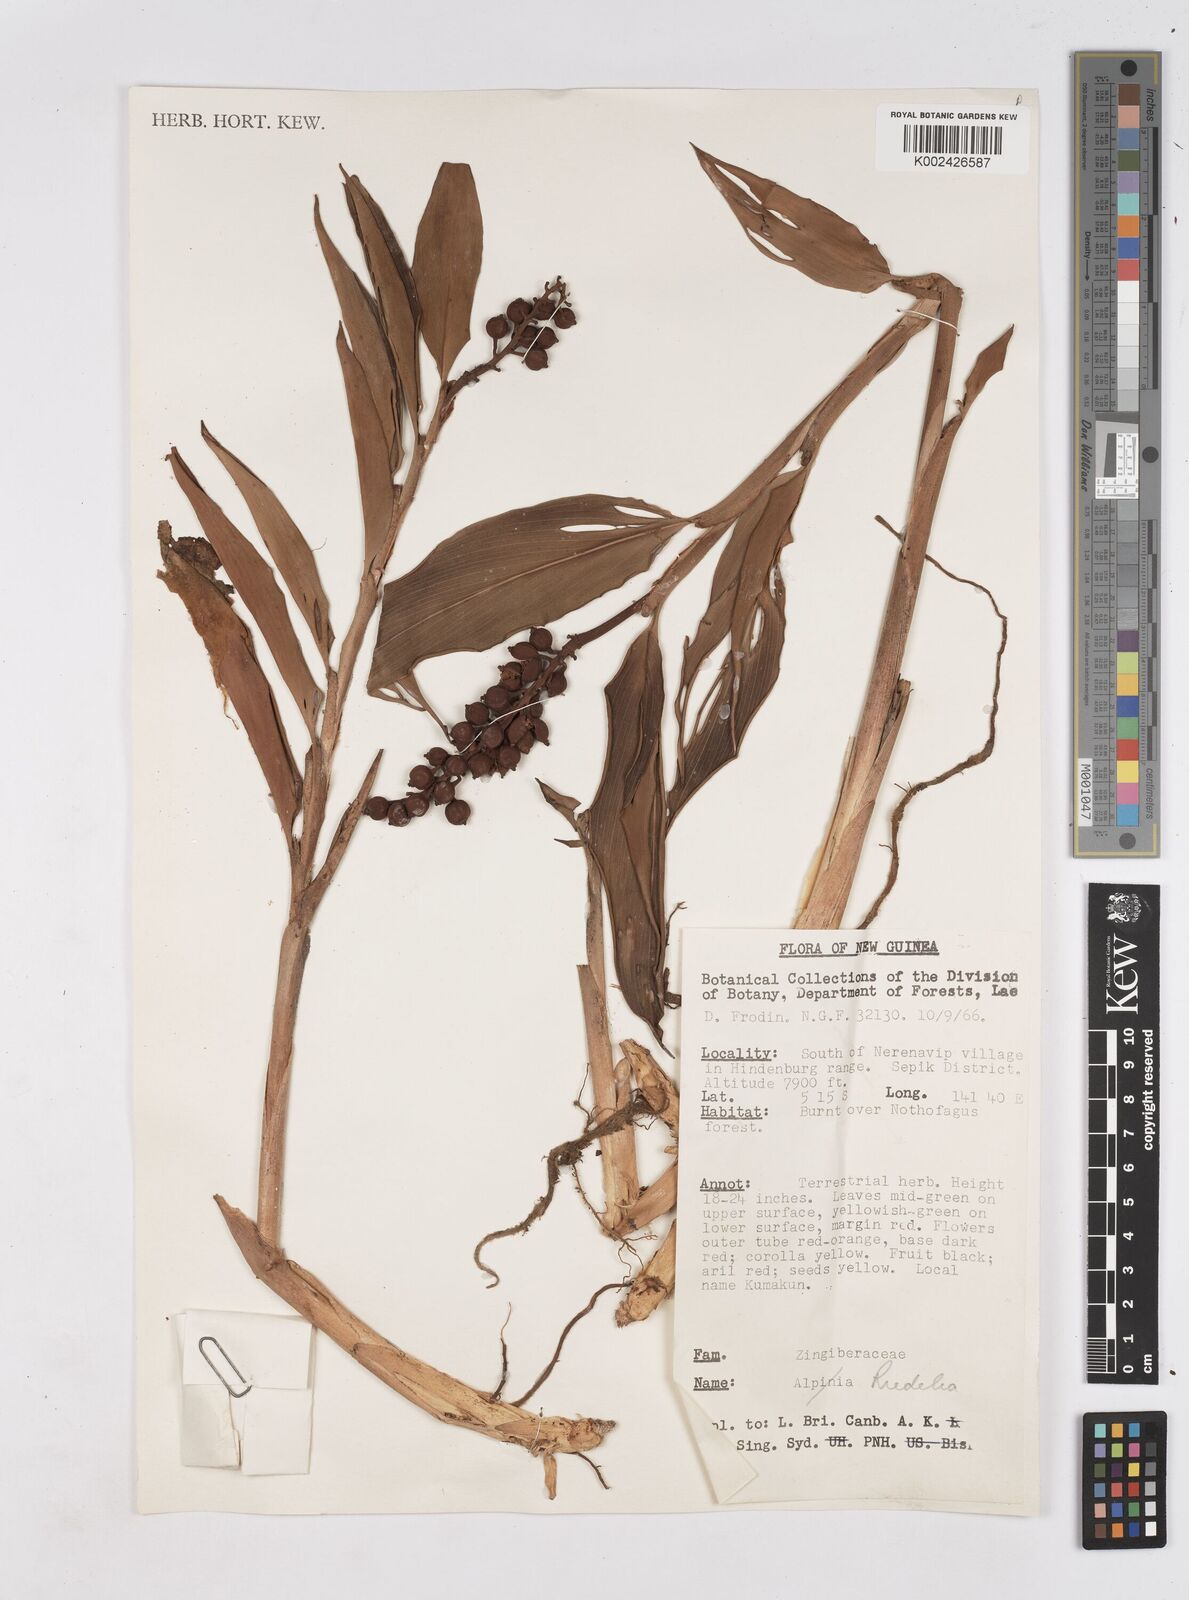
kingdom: Plantae
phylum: Tracheophyta
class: Liliopsida
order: Zingiberales
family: Zingiberaceae
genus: Riedelia
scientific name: Riedelia
